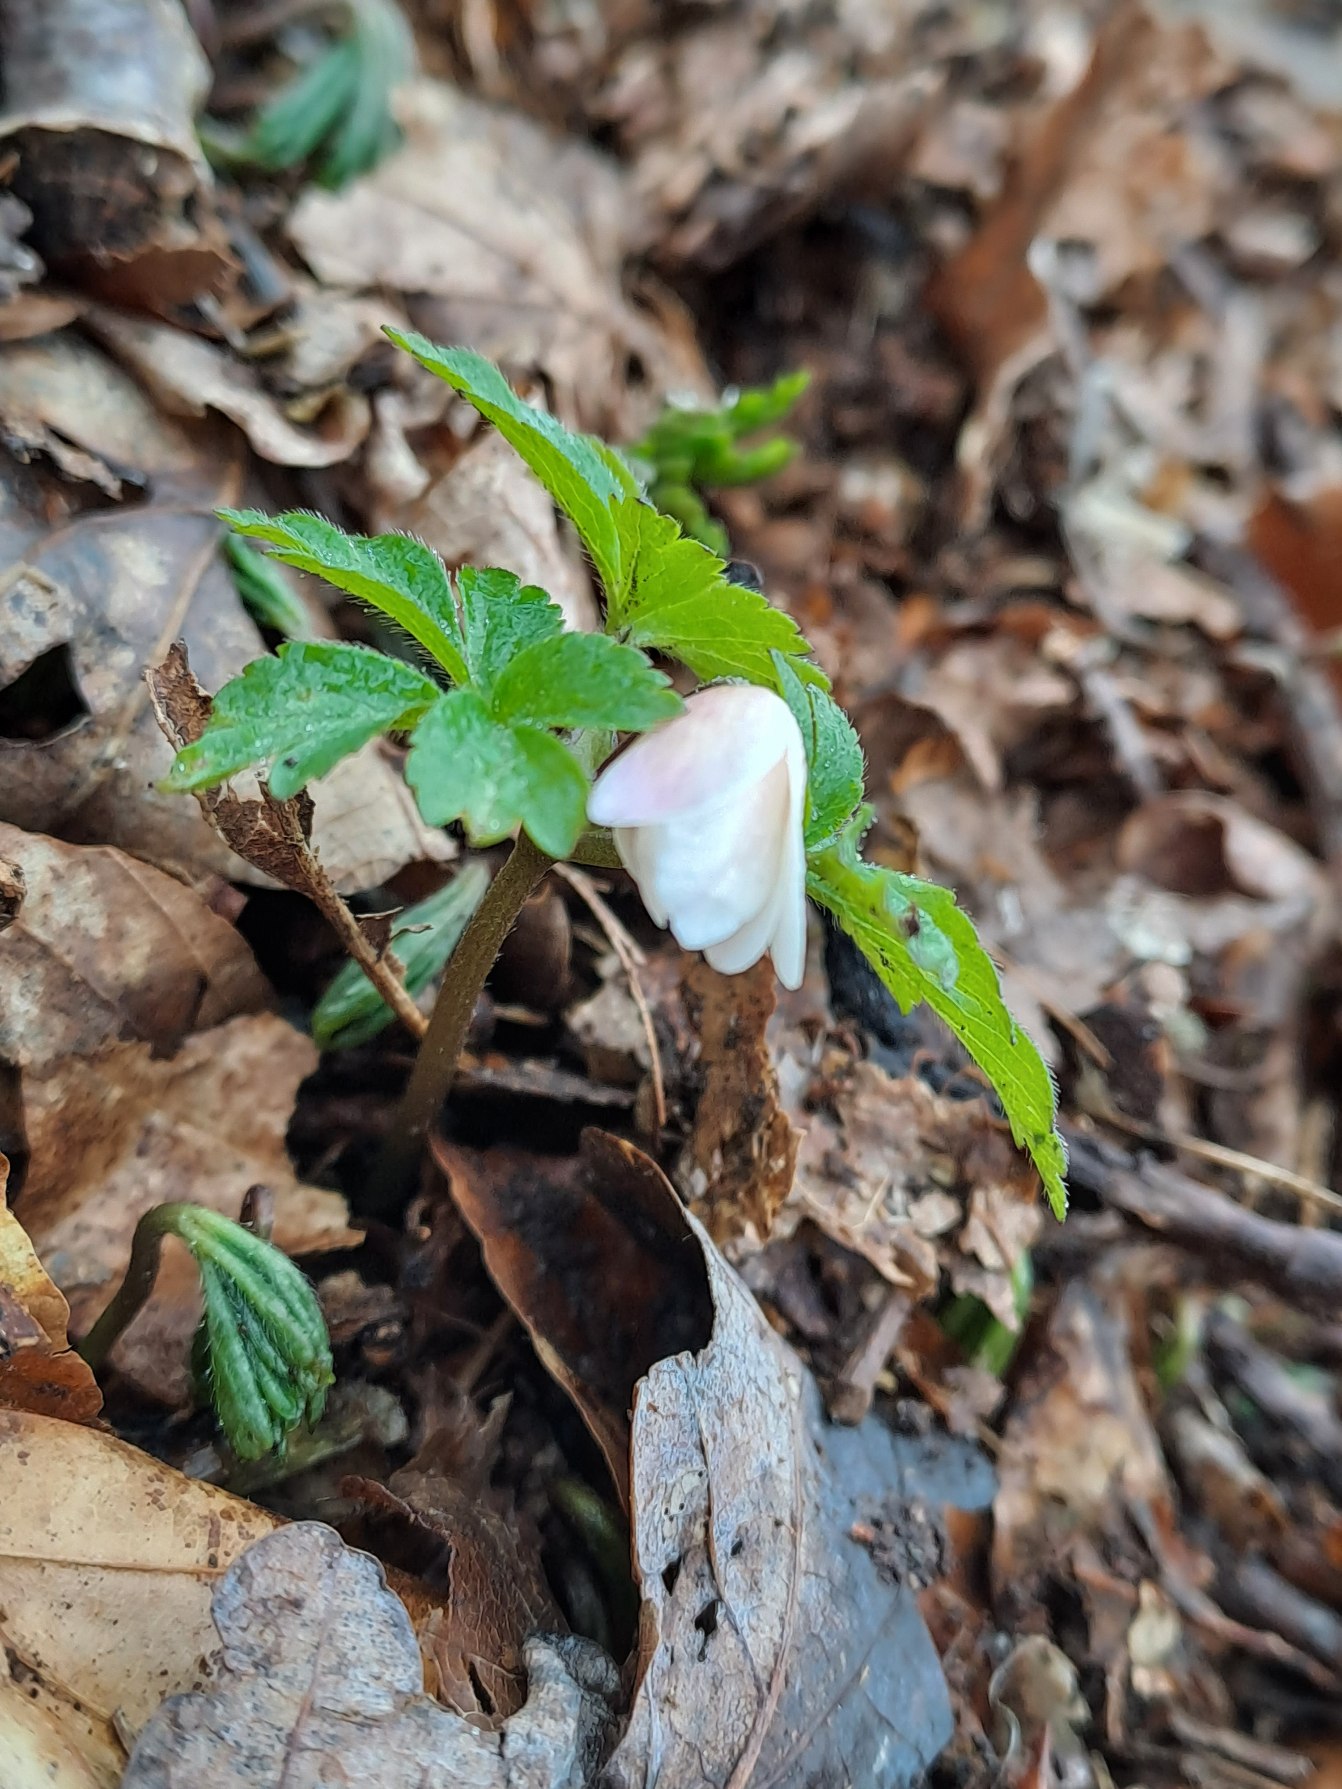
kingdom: Plantae
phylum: Tracheophyta
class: Magnoliopsida
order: Ranunculales
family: Ranunculaceae
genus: Anemone
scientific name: Anemone nemorosa
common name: Hvid anemone
